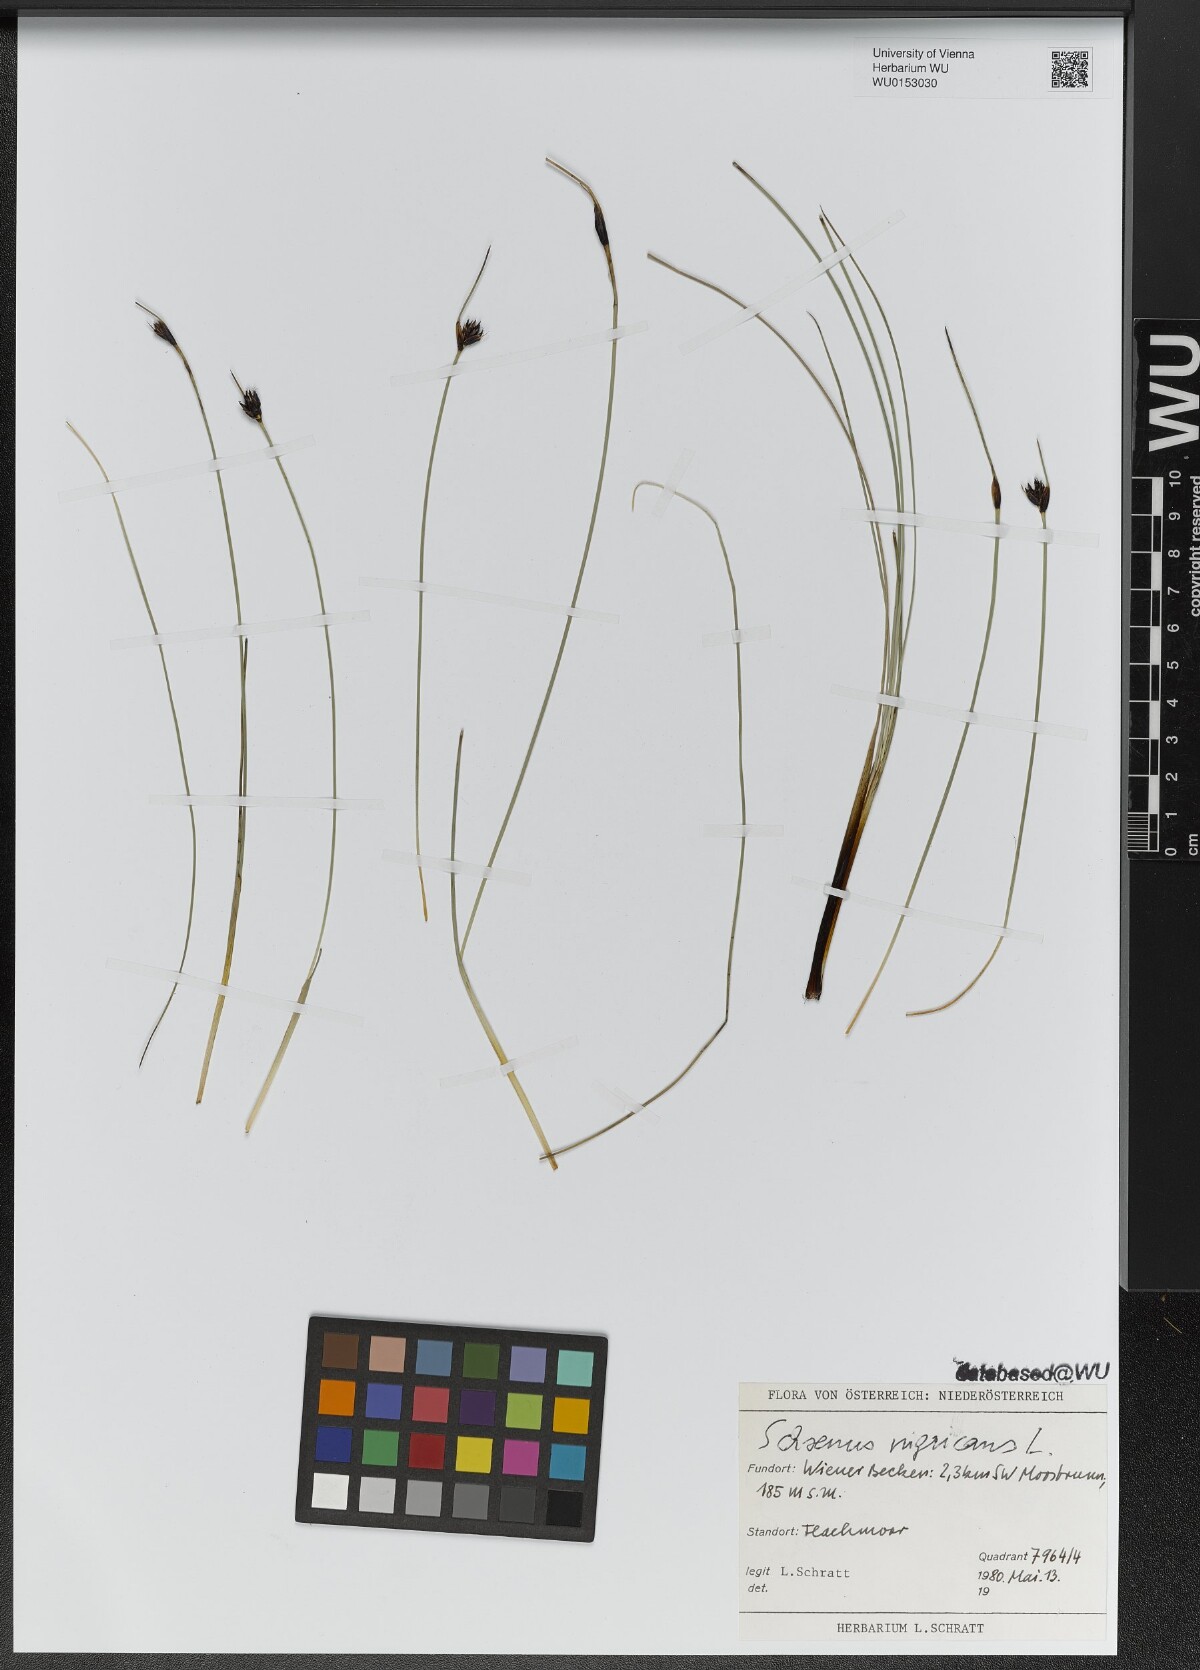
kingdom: Plantae
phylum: Tracheophyta
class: Liliopsida
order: Poales
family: Cyperaceae
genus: Schoenus
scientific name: Schoenus nigricans
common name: Black bog-rush
